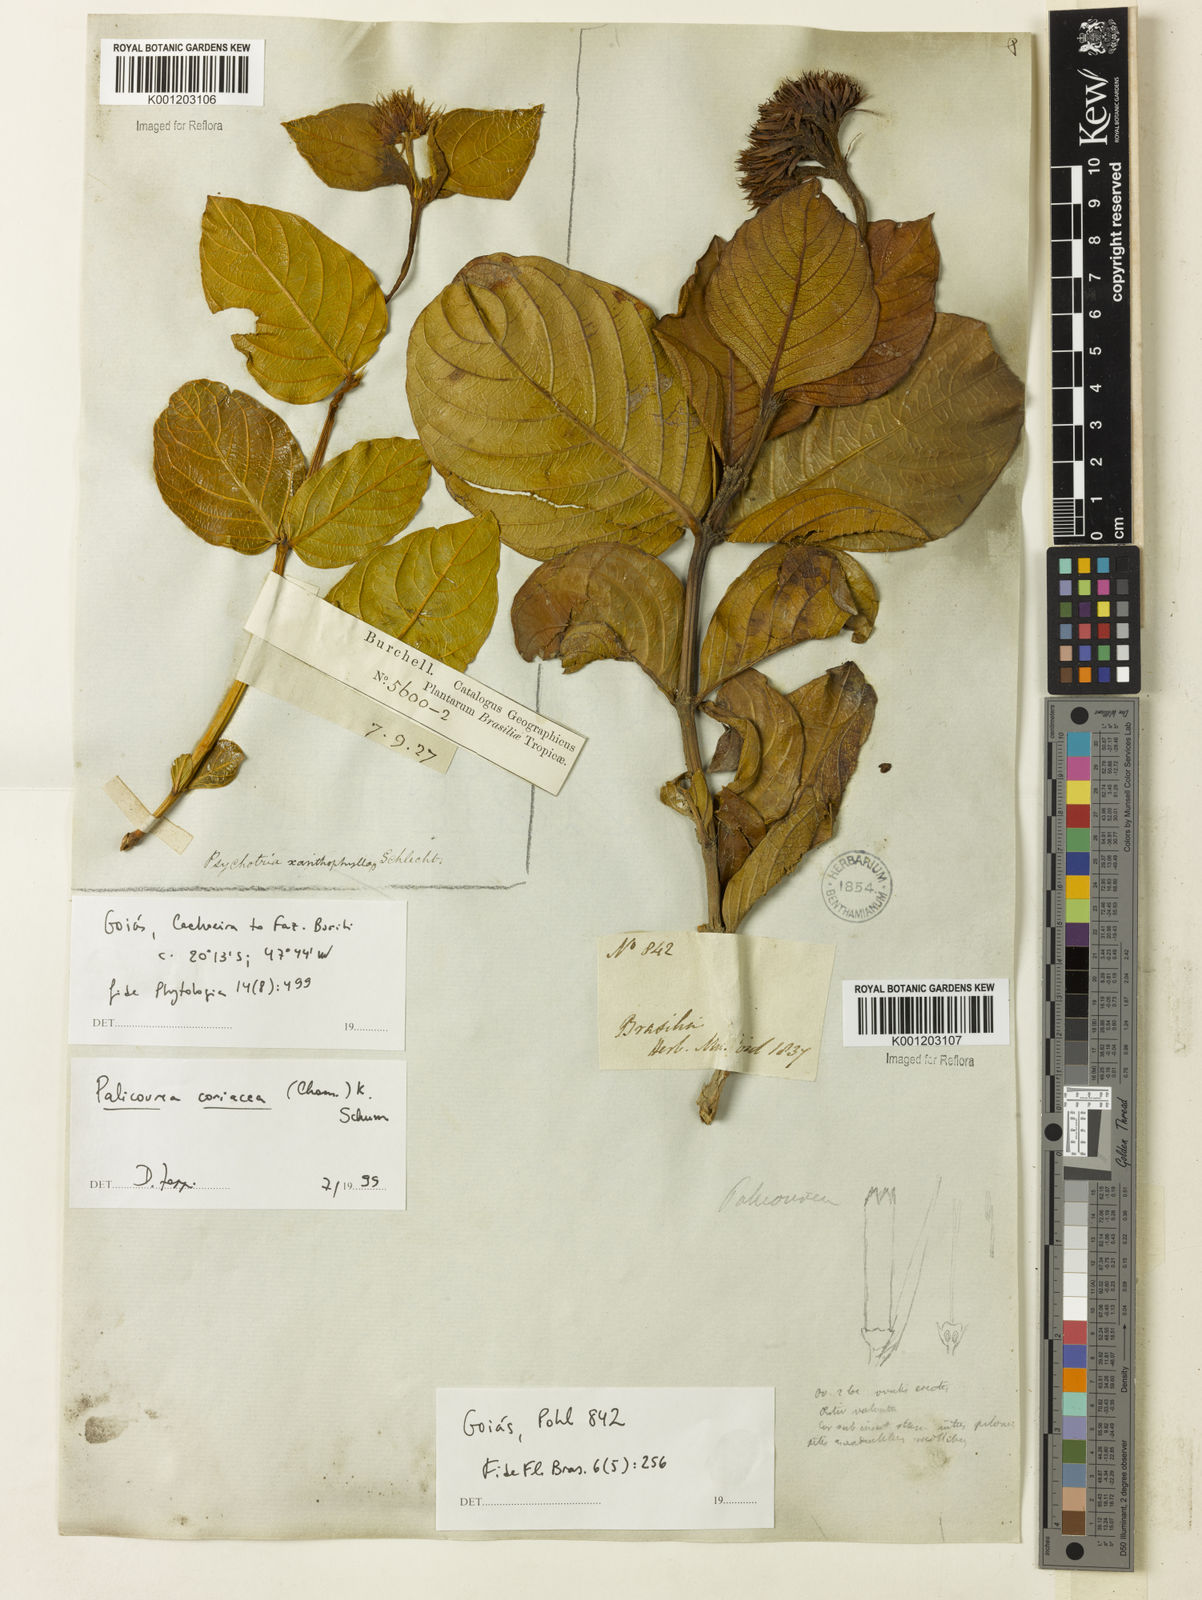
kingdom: Plantae
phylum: Tracheophyta
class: Magnoliopsida
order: Gentianales
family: Rubiaceae
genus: Palicourea
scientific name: Palicourea coriacea
